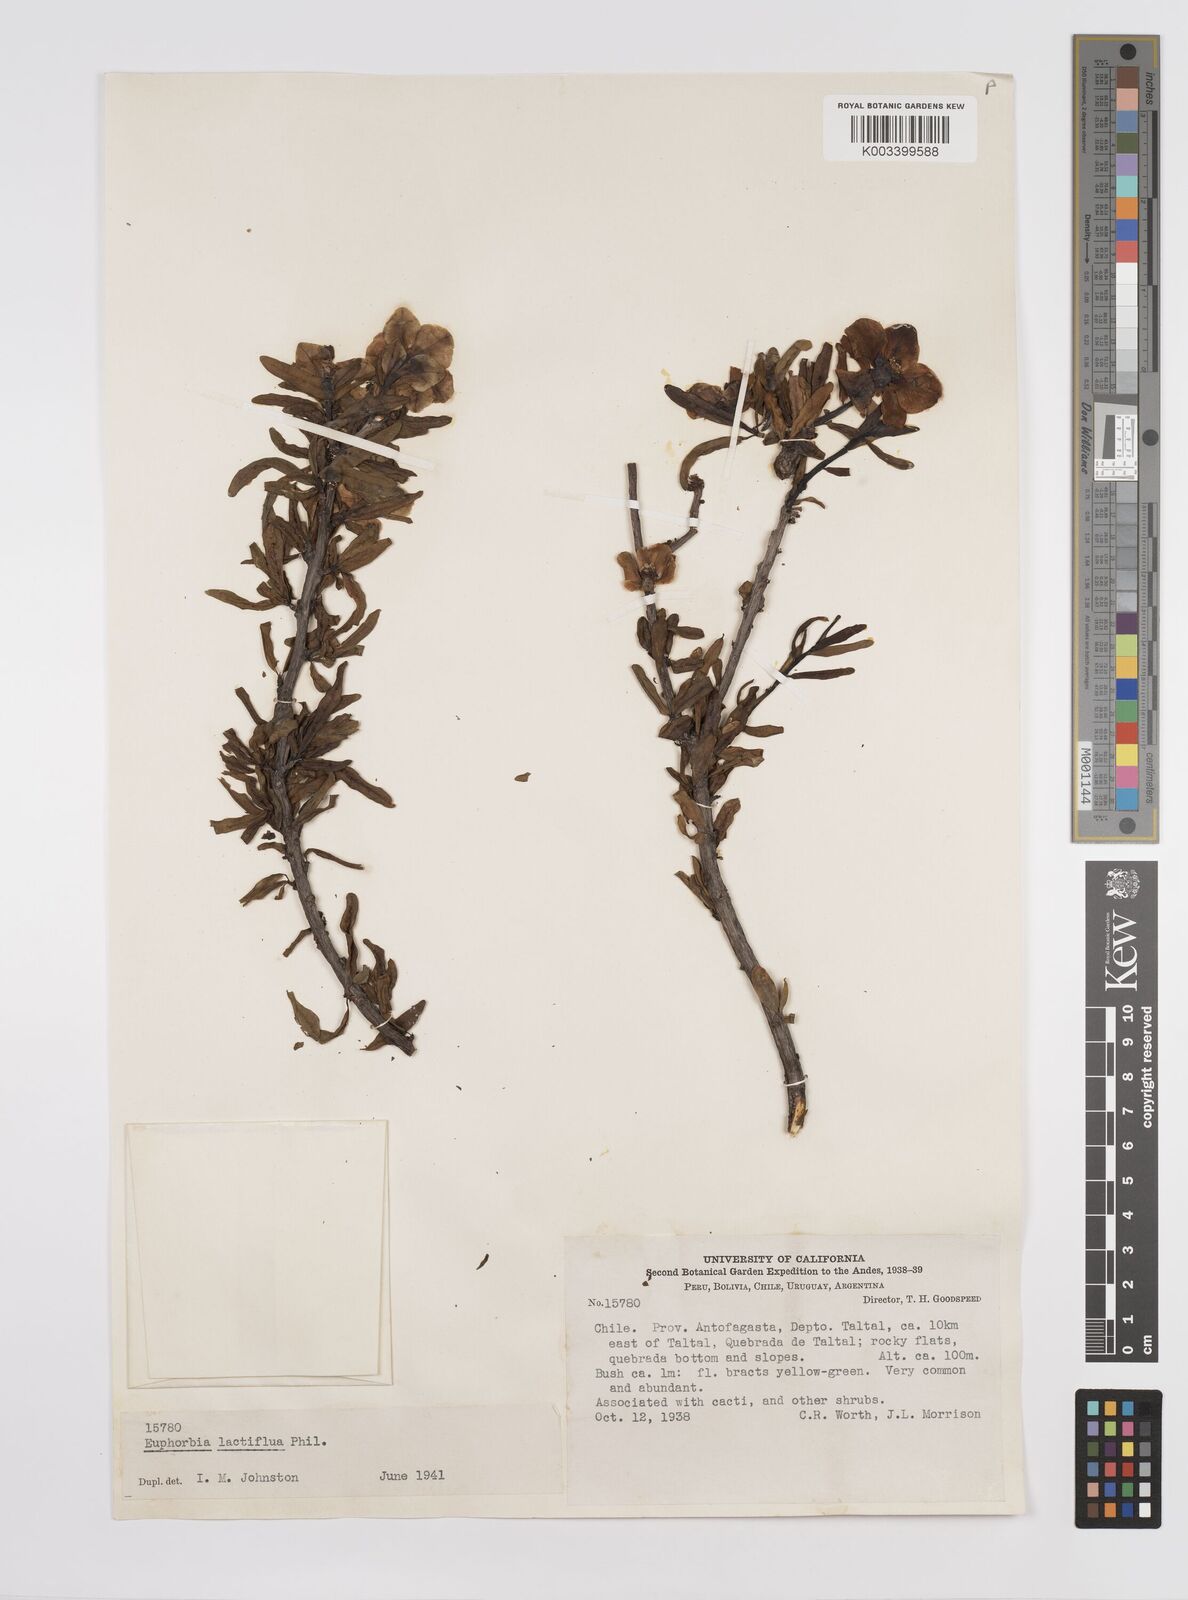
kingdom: Plantae
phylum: Tracheophyta
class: Magnoliopsida
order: Malpighiales
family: Euphorbiaceae
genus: Euphorbia
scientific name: Euphorbia lactiflua
